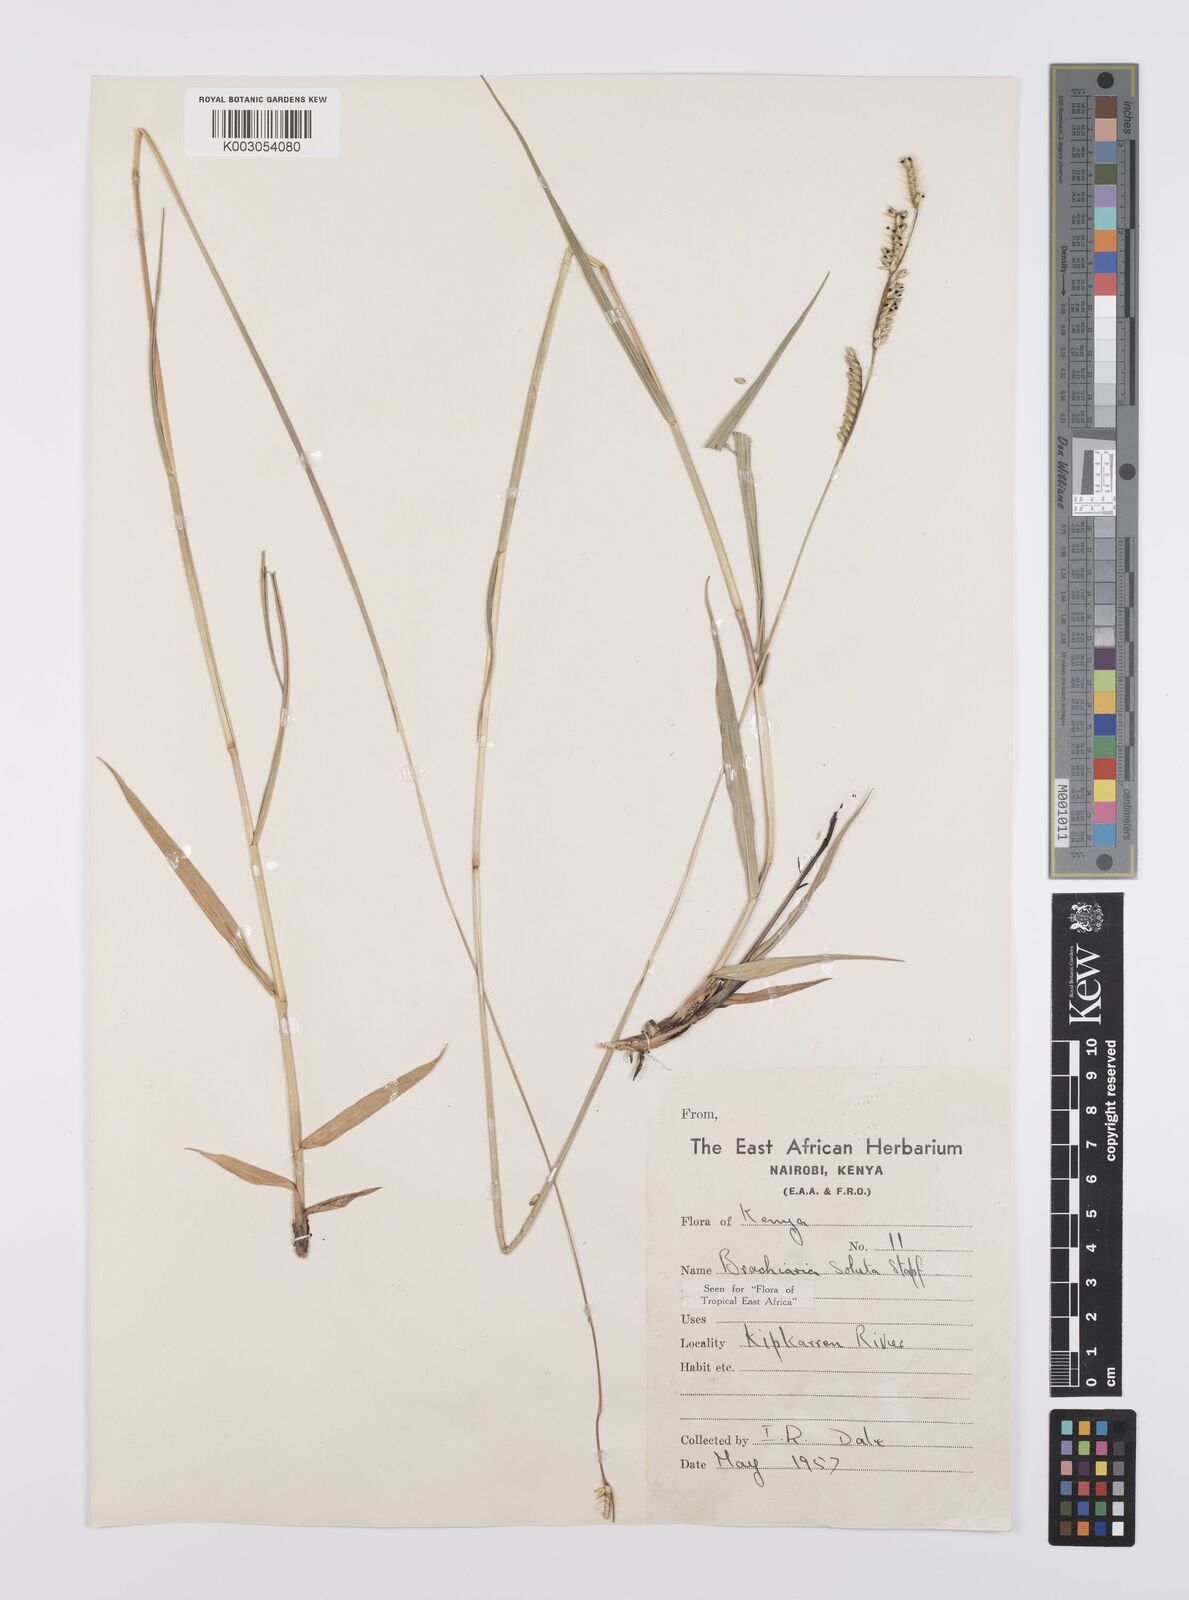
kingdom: Plantae
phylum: Tracheophyta
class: Liliopsida
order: Poales
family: Poaceae
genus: Urochloa
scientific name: Urochloa jubata
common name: Buffalograss
